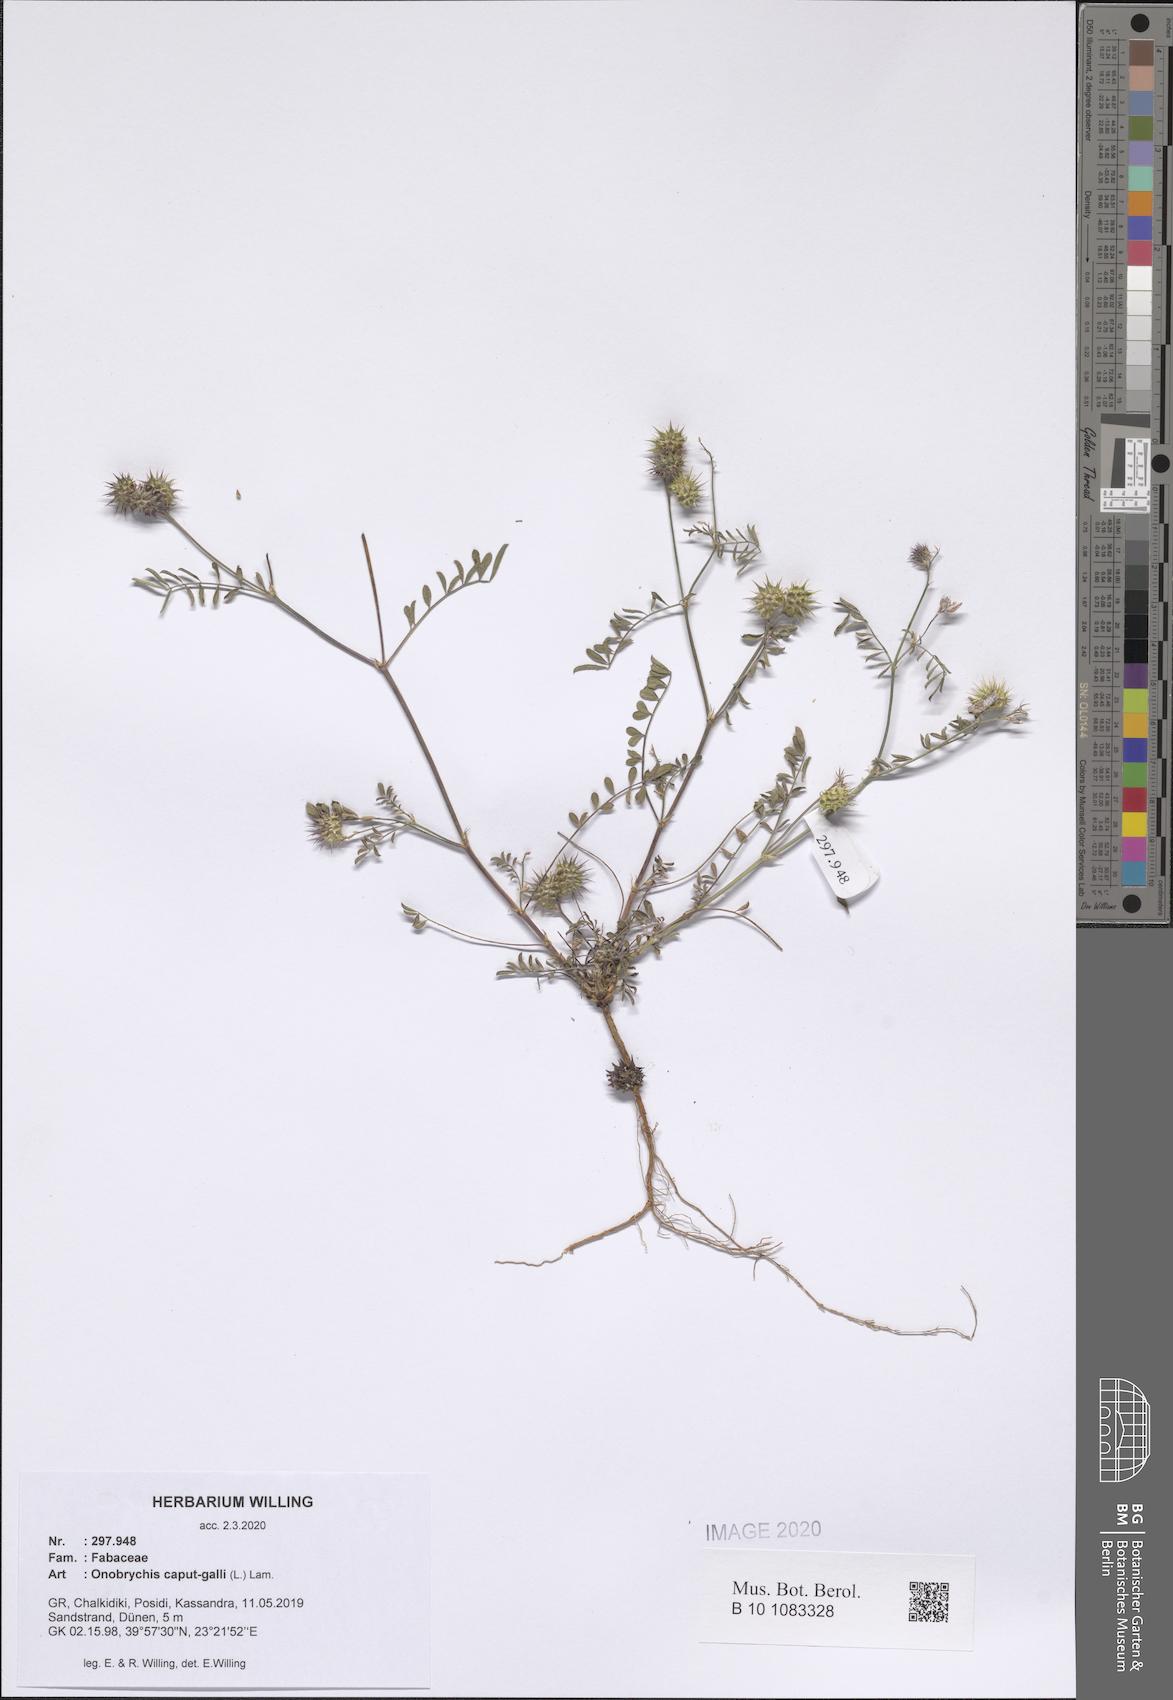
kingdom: Plantae
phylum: Tracheophyta
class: Magnoliopsida
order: Fabales
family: Fabaceae
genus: Onobrychis
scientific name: Onobrychis caput-galli
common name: Cockscomb sainfoin
